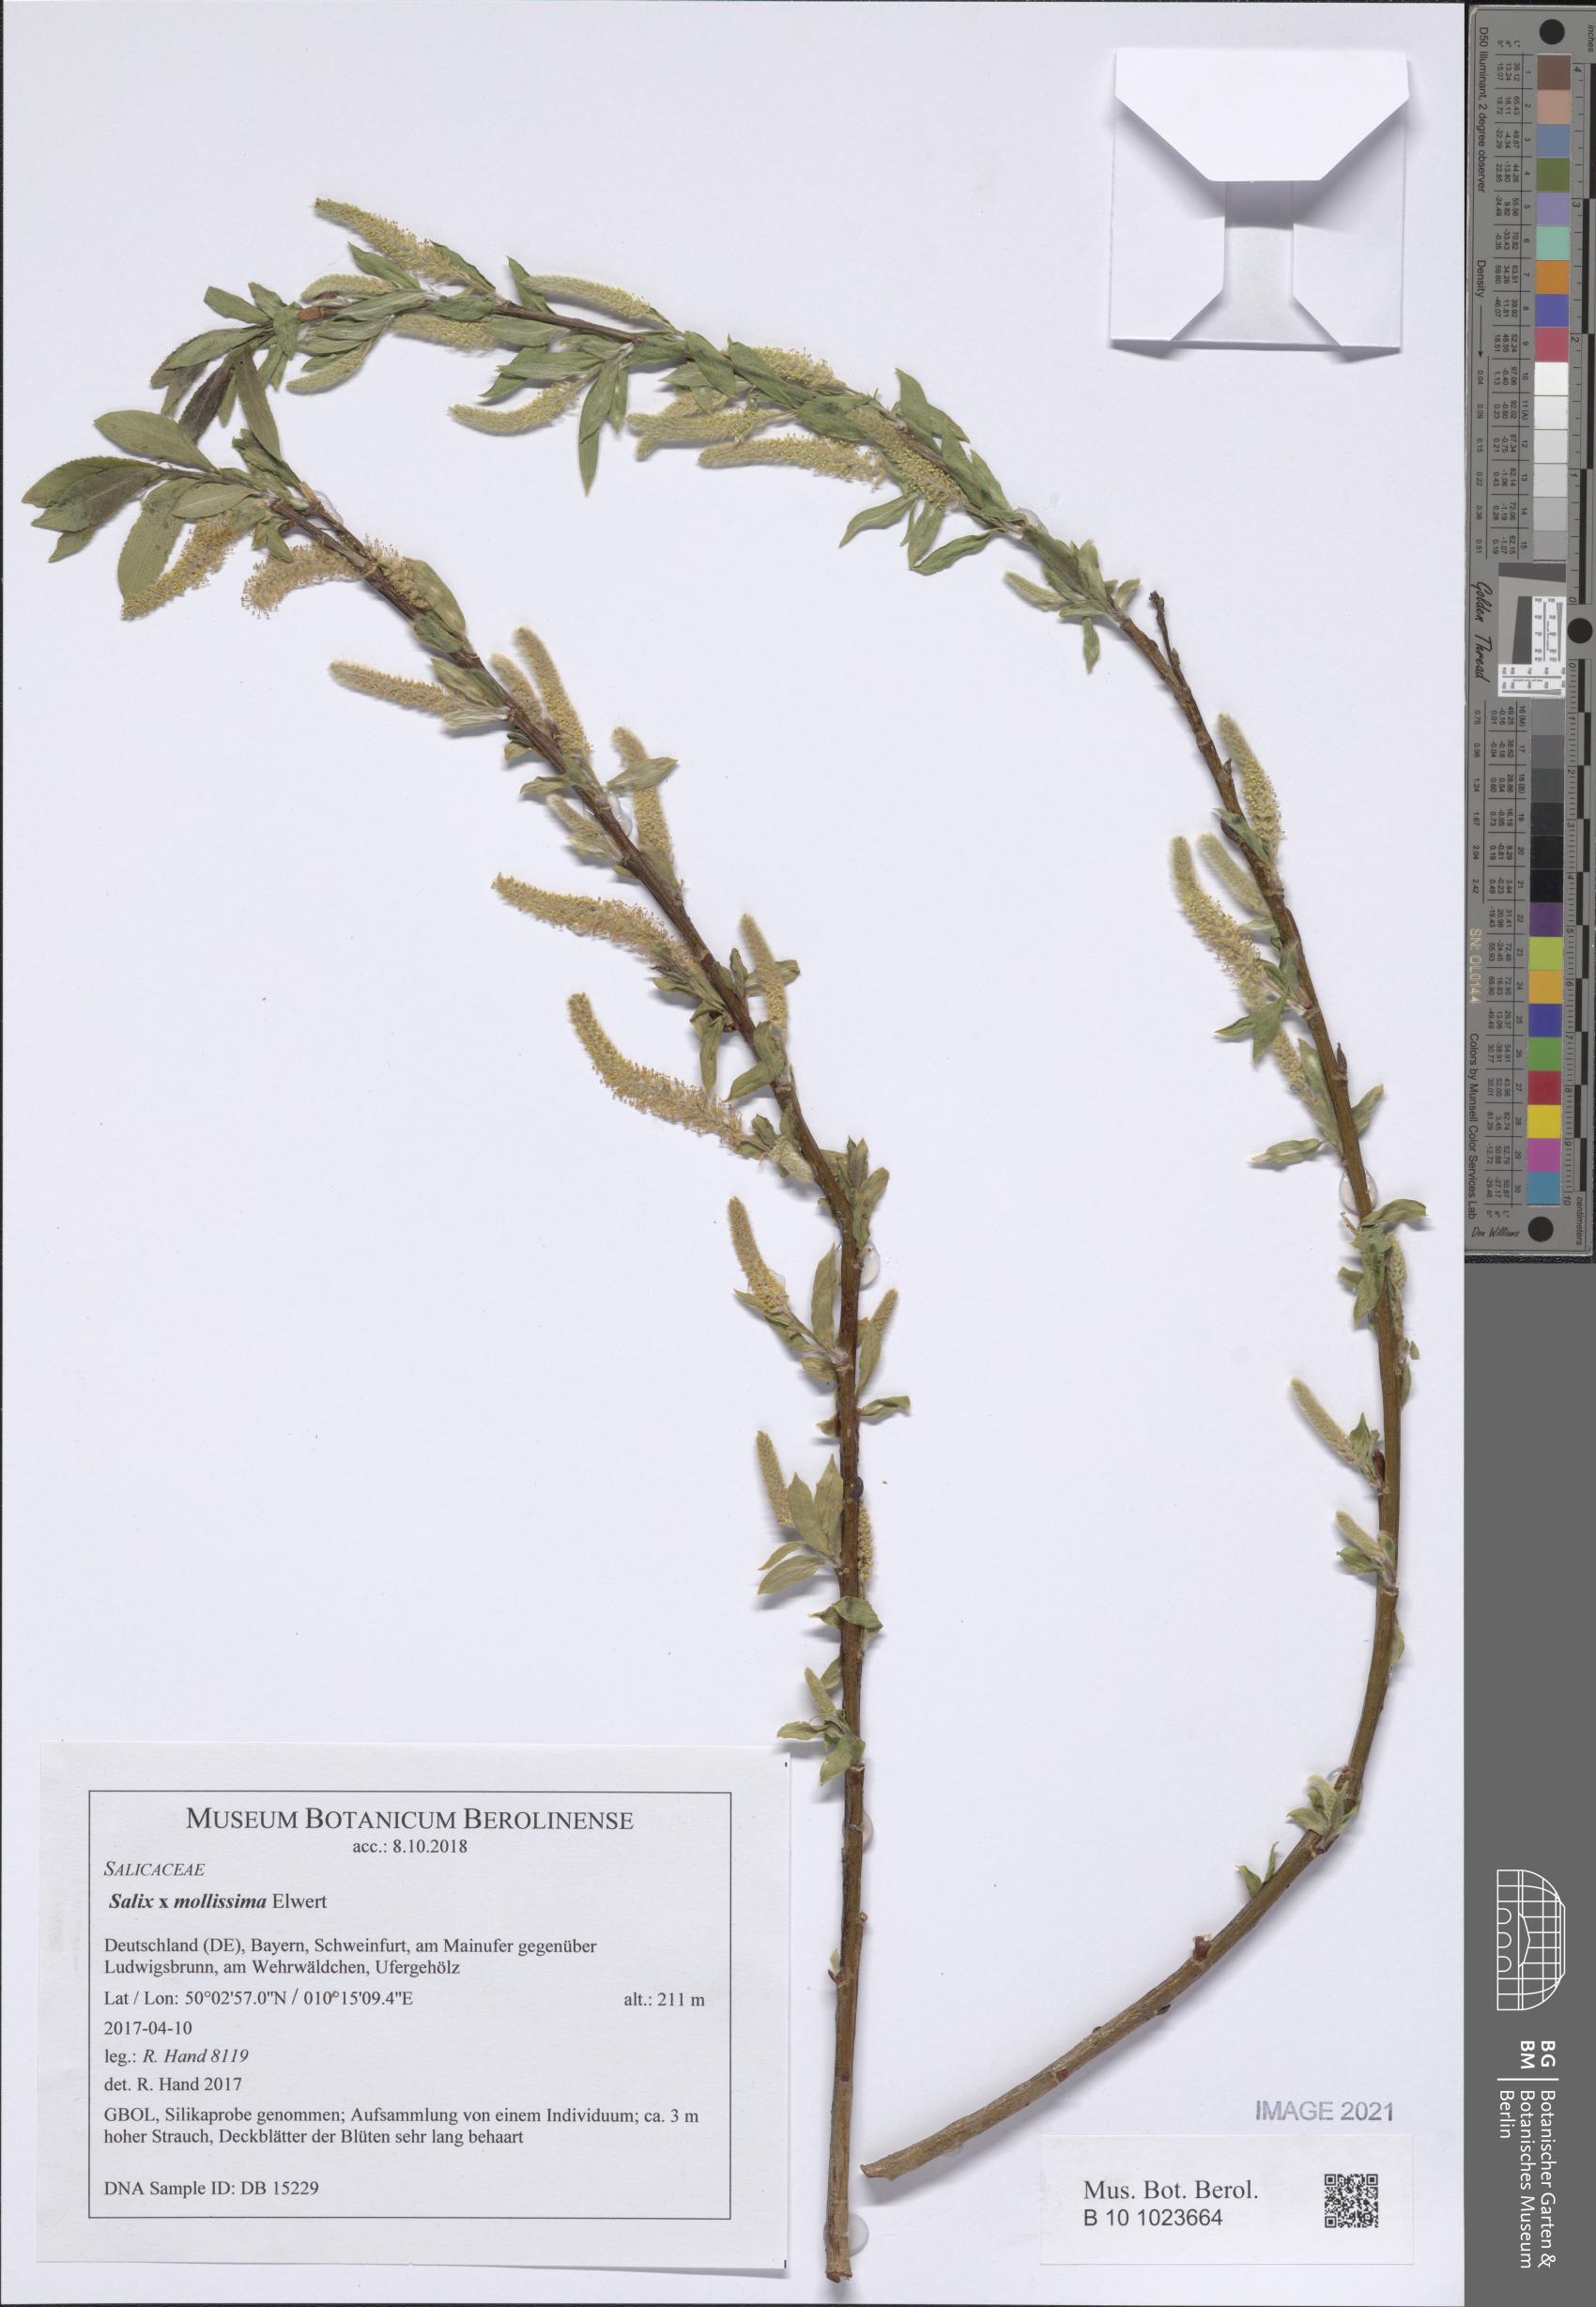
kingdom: Plantae
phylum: Tracheophyta
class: Magnoliopsida
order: Malpighiales
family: Salicaceae
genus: Salix
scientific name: Salix mollissima
